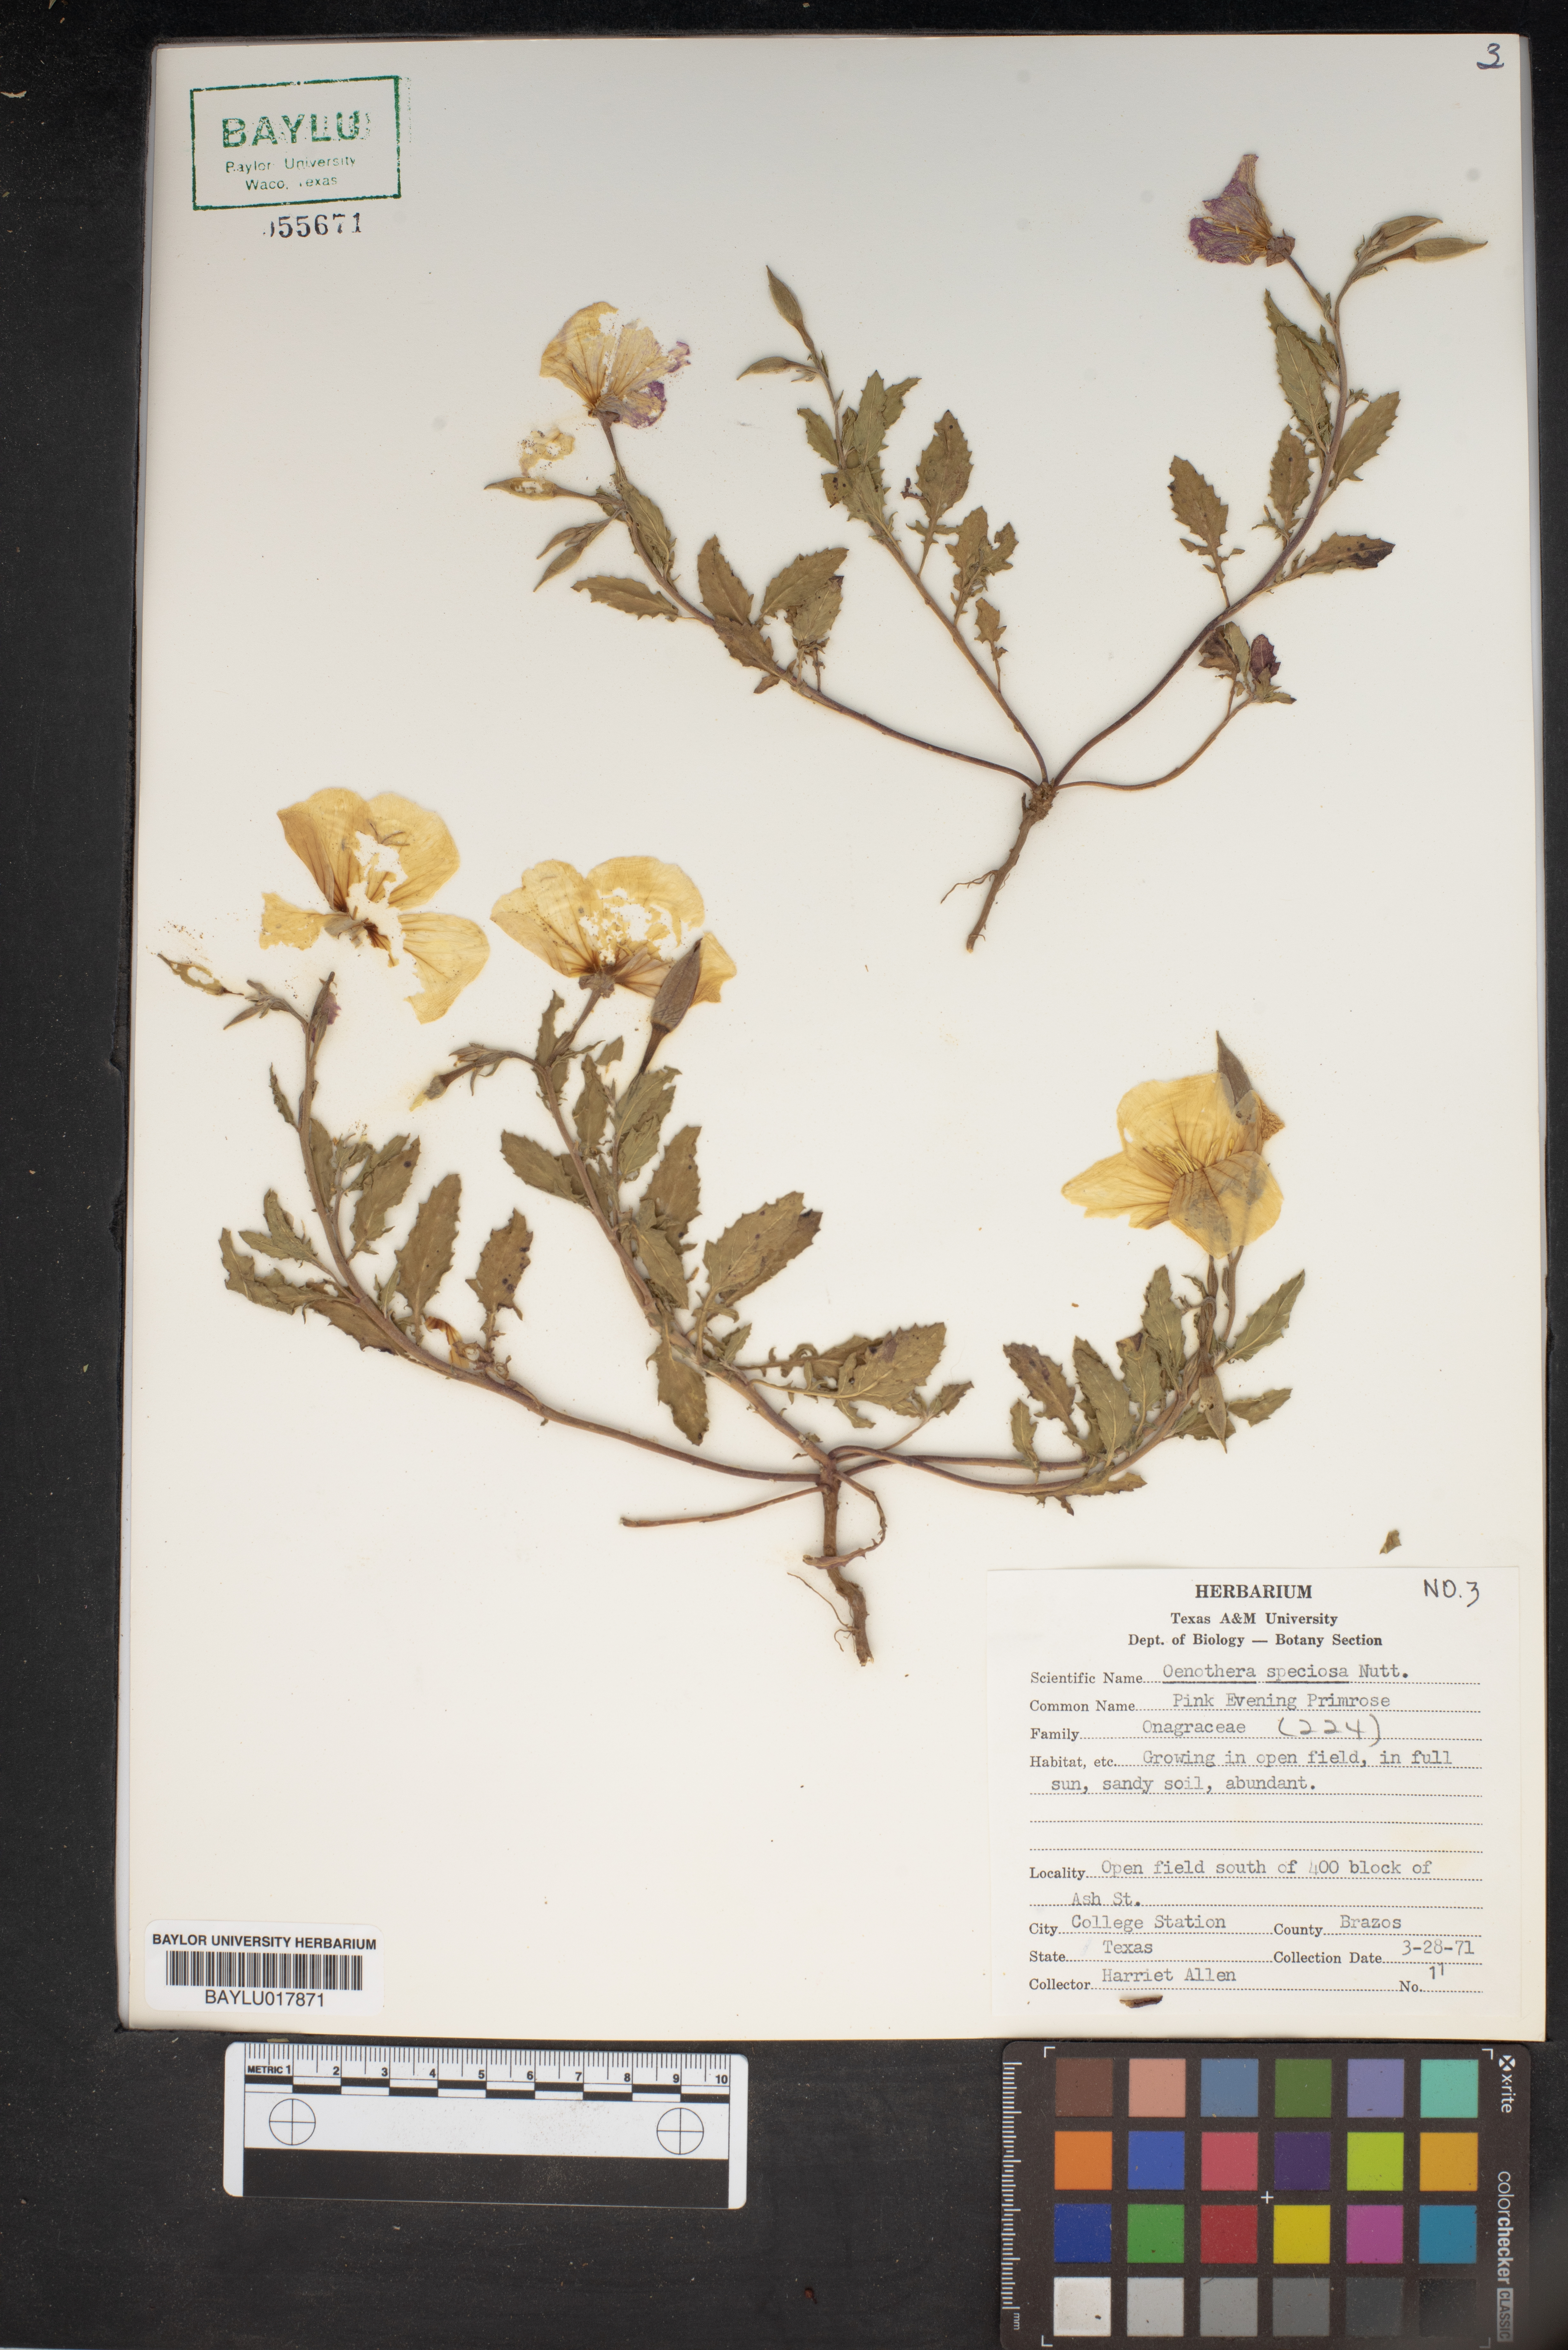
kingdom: Plantae
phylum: Tracheophyta
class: Magnoliopsida
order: Myrtales
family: Onagraceae
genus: Oenothera
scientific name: Oenothera speciosa
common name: White evening-primrose
